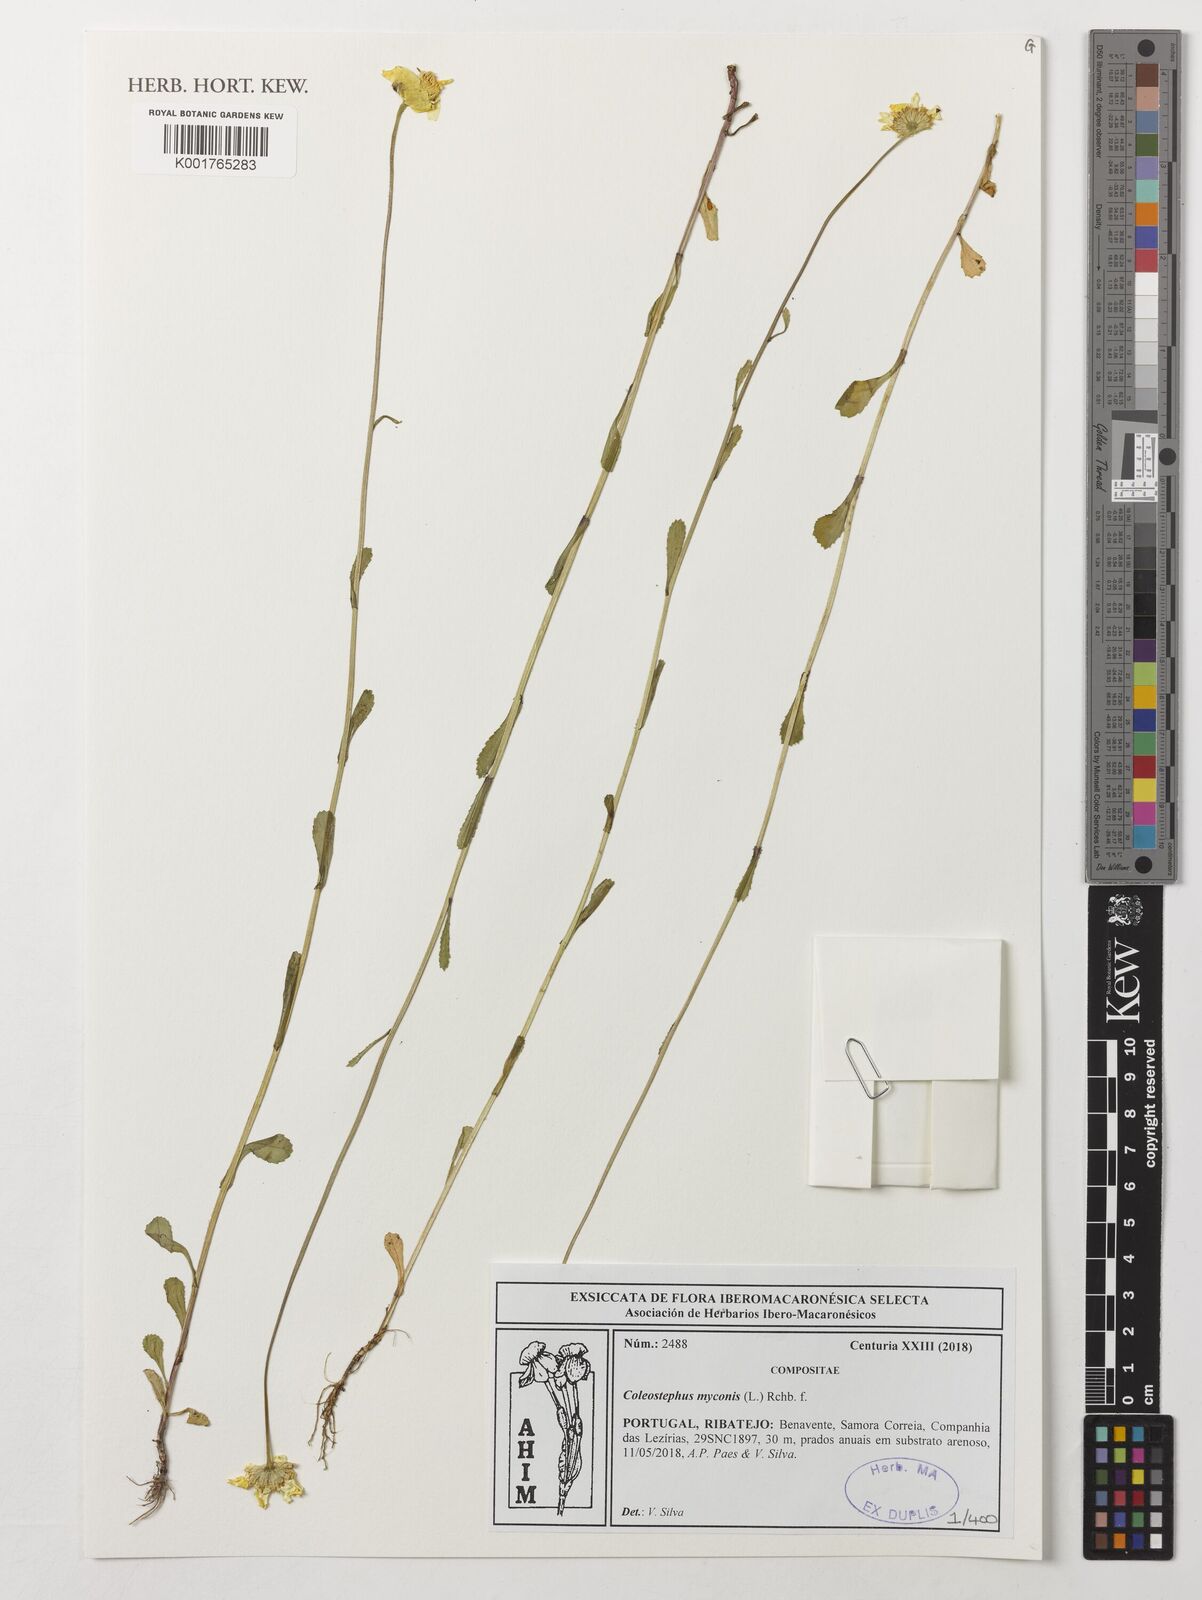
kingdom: Plantae
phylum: Tracheophyta
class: Magnoliopsida
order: Asterales
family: Asteraceae
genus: Coleostephus
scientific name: Coleostephus myconis
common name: Mediterranean marigold
